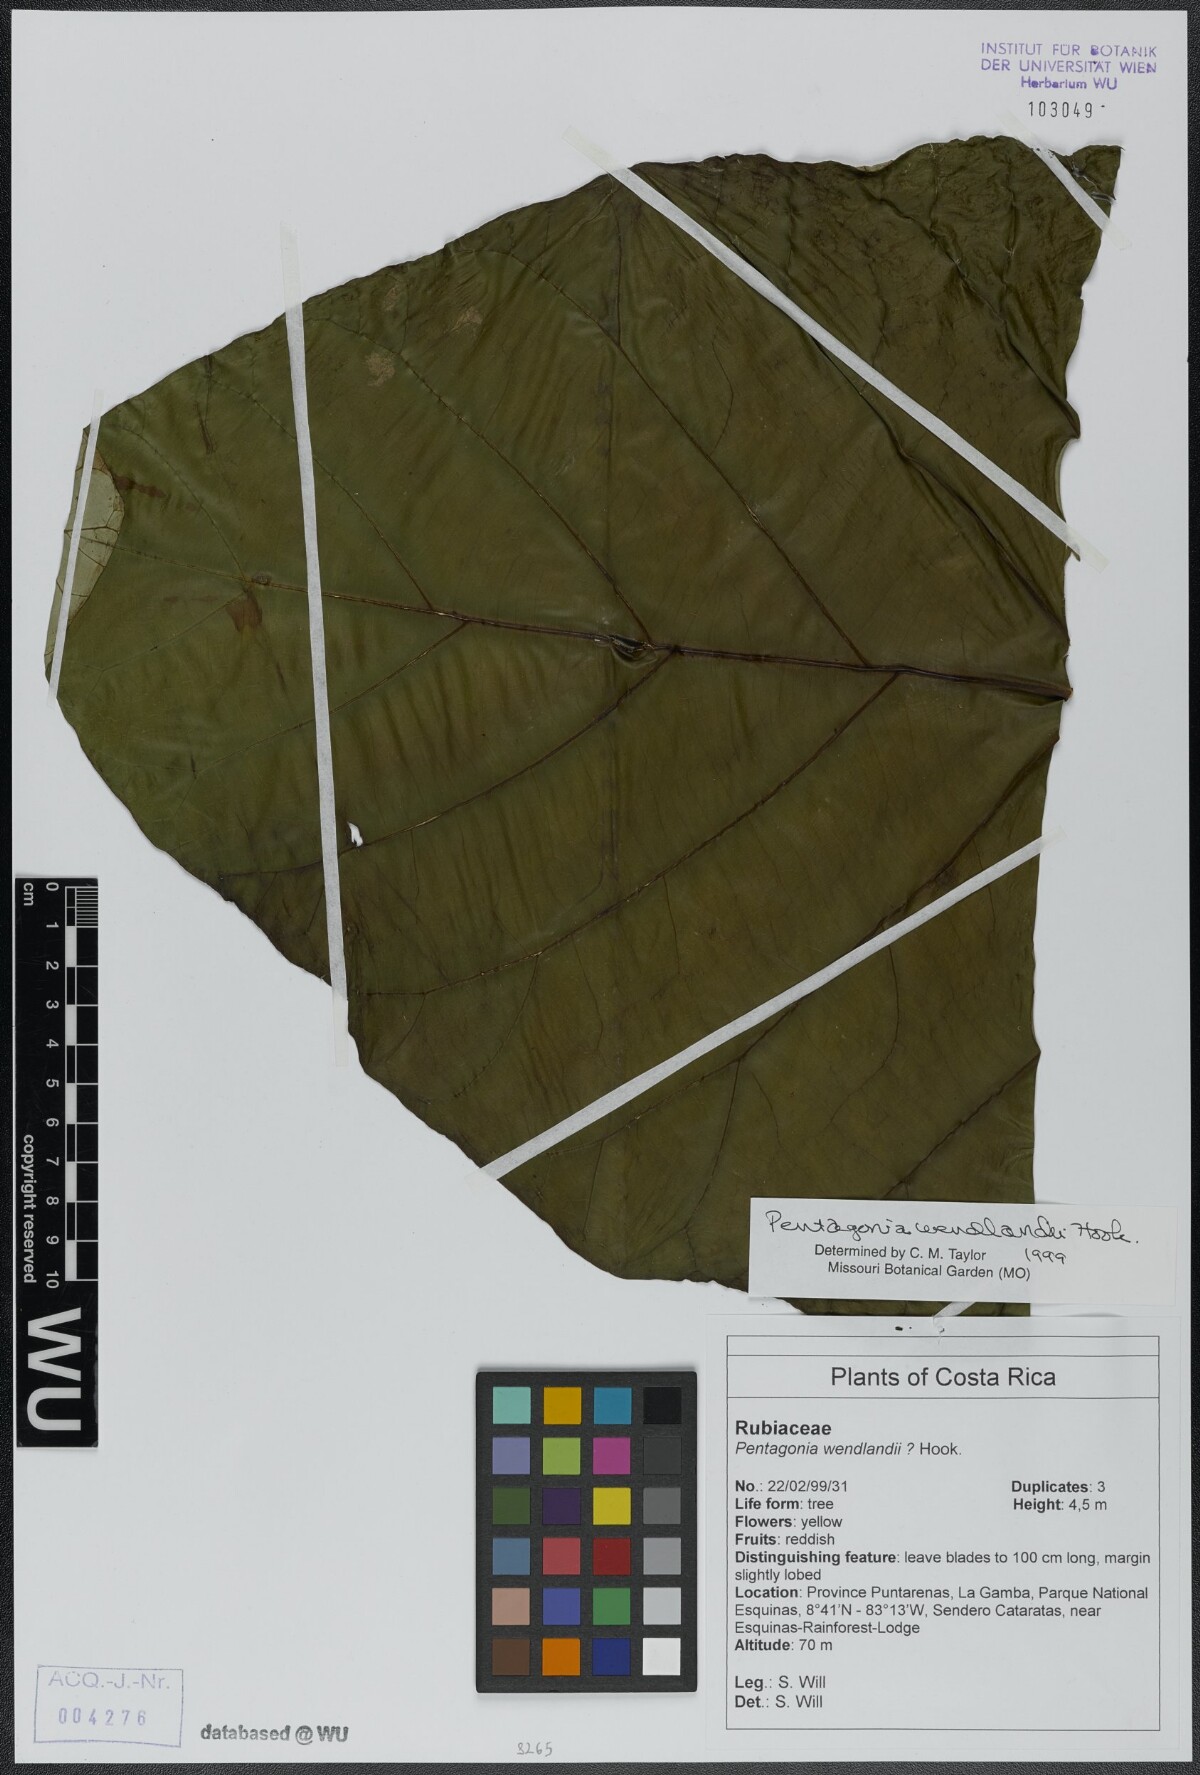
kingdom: Plantae
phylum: Tracheophyta
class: Magnoliopsida
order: Gentianales
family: Rubiaceae
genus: Pentagonia
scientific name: Pentagonia wendlandii
